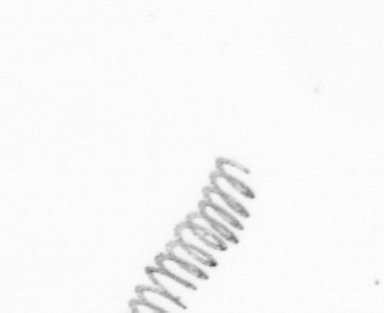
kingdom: Chromista
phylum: Ochrophyta
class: Bacillariophyceae
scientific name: Bacillariophyceae
